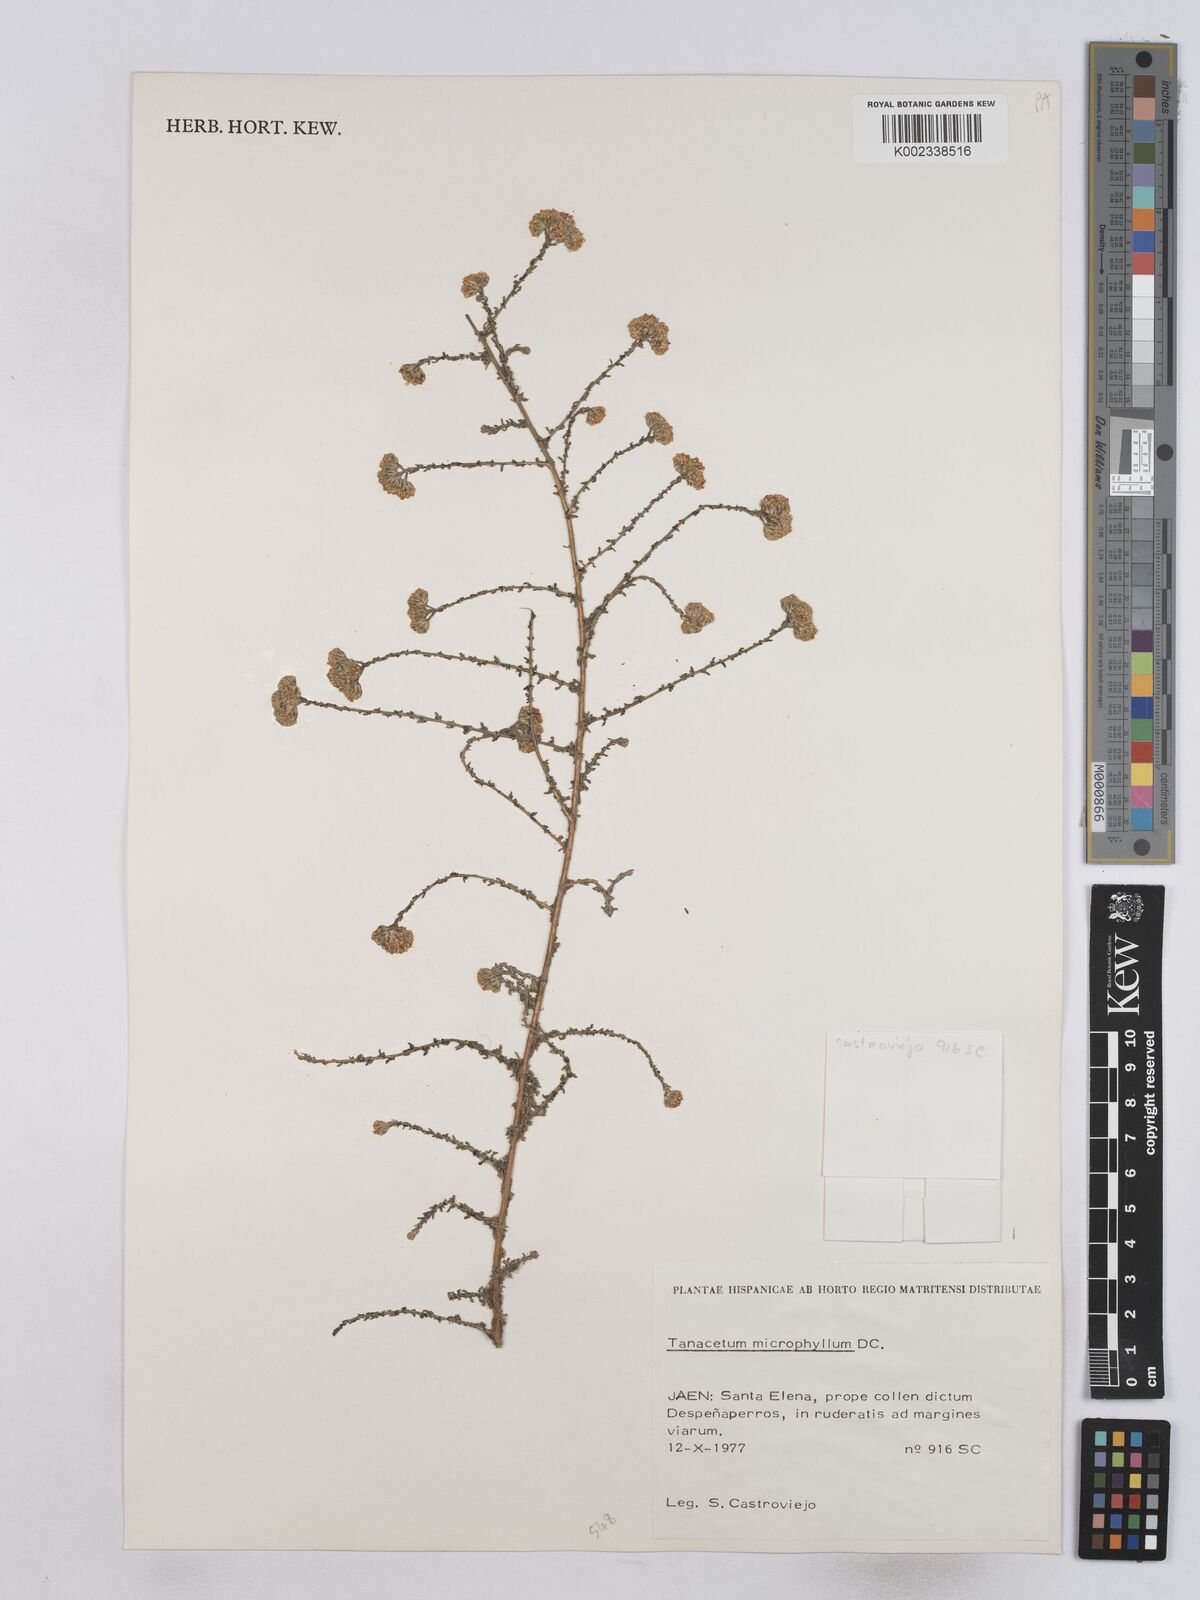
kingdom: Plantae
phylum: Tracheophyta
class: Magnoliopsida
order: Asterales
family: Asteraceae
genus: Vogtia
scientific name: Vogtia microphylla
